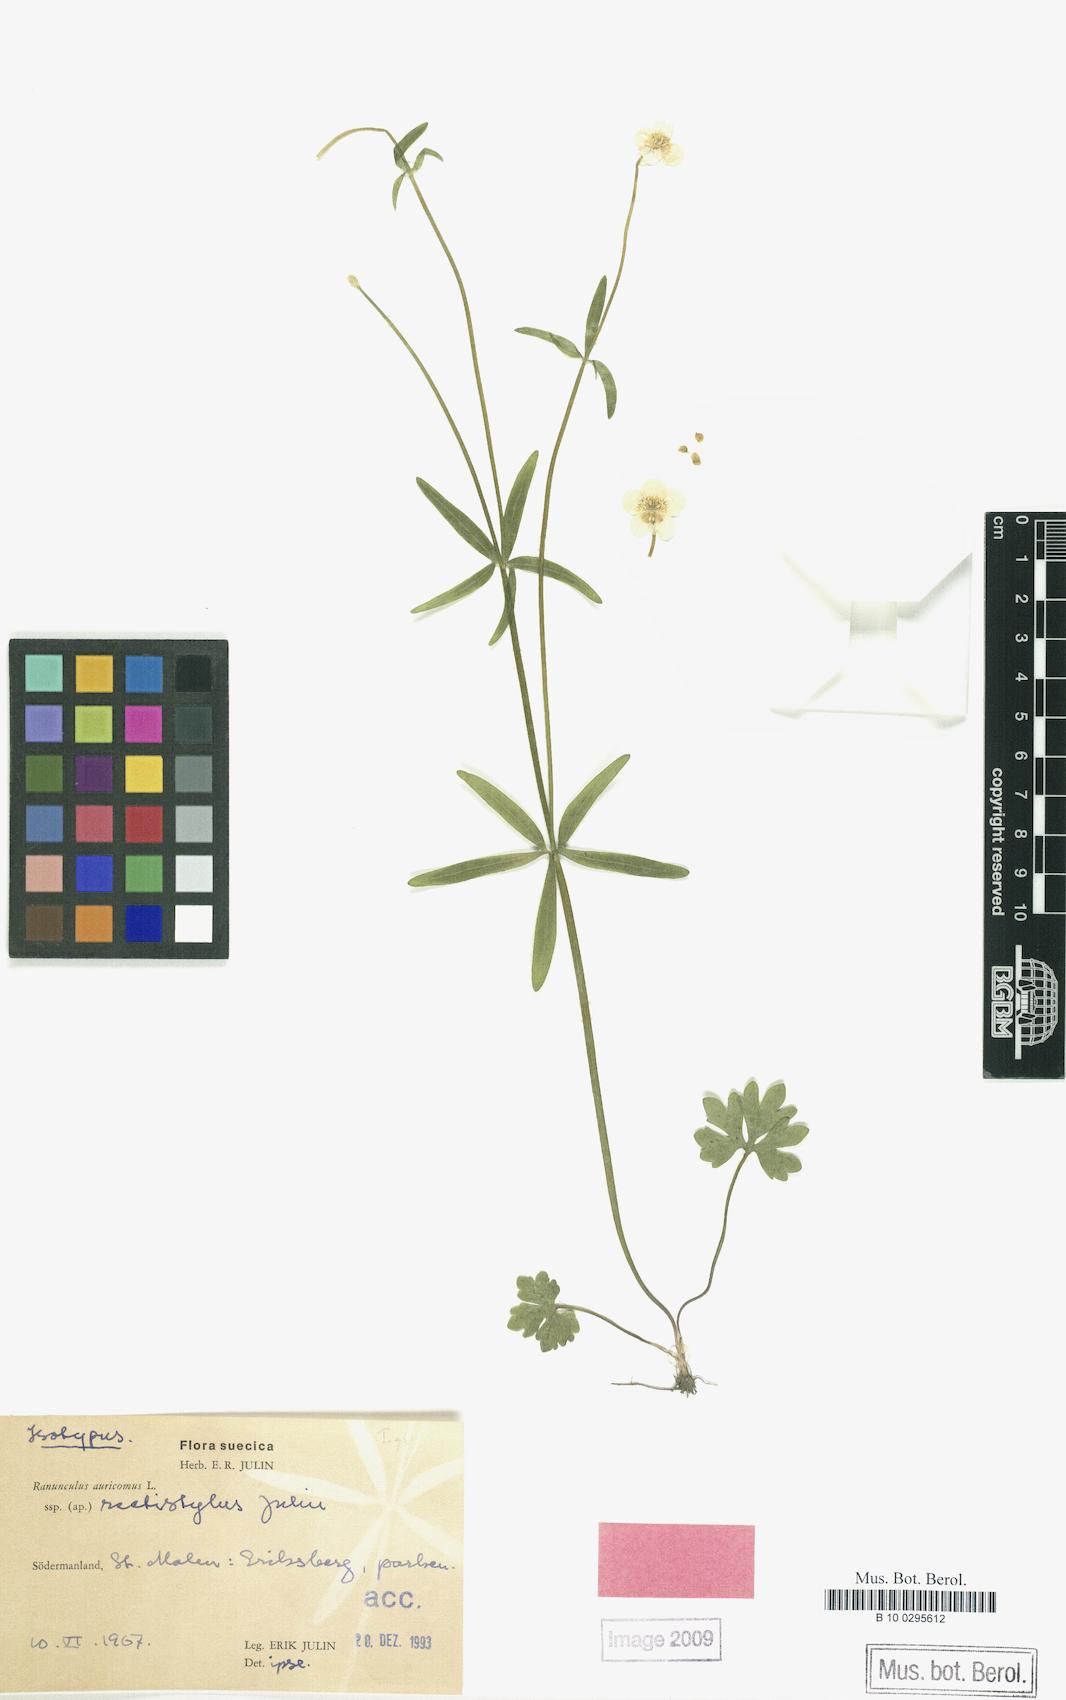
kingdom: Plantae
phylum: Tracheophyta
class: Magnoliopsida
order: Ranunculales
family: Ranunculaceae
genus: Ranunculus
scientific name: Ranunculus rectistylus
